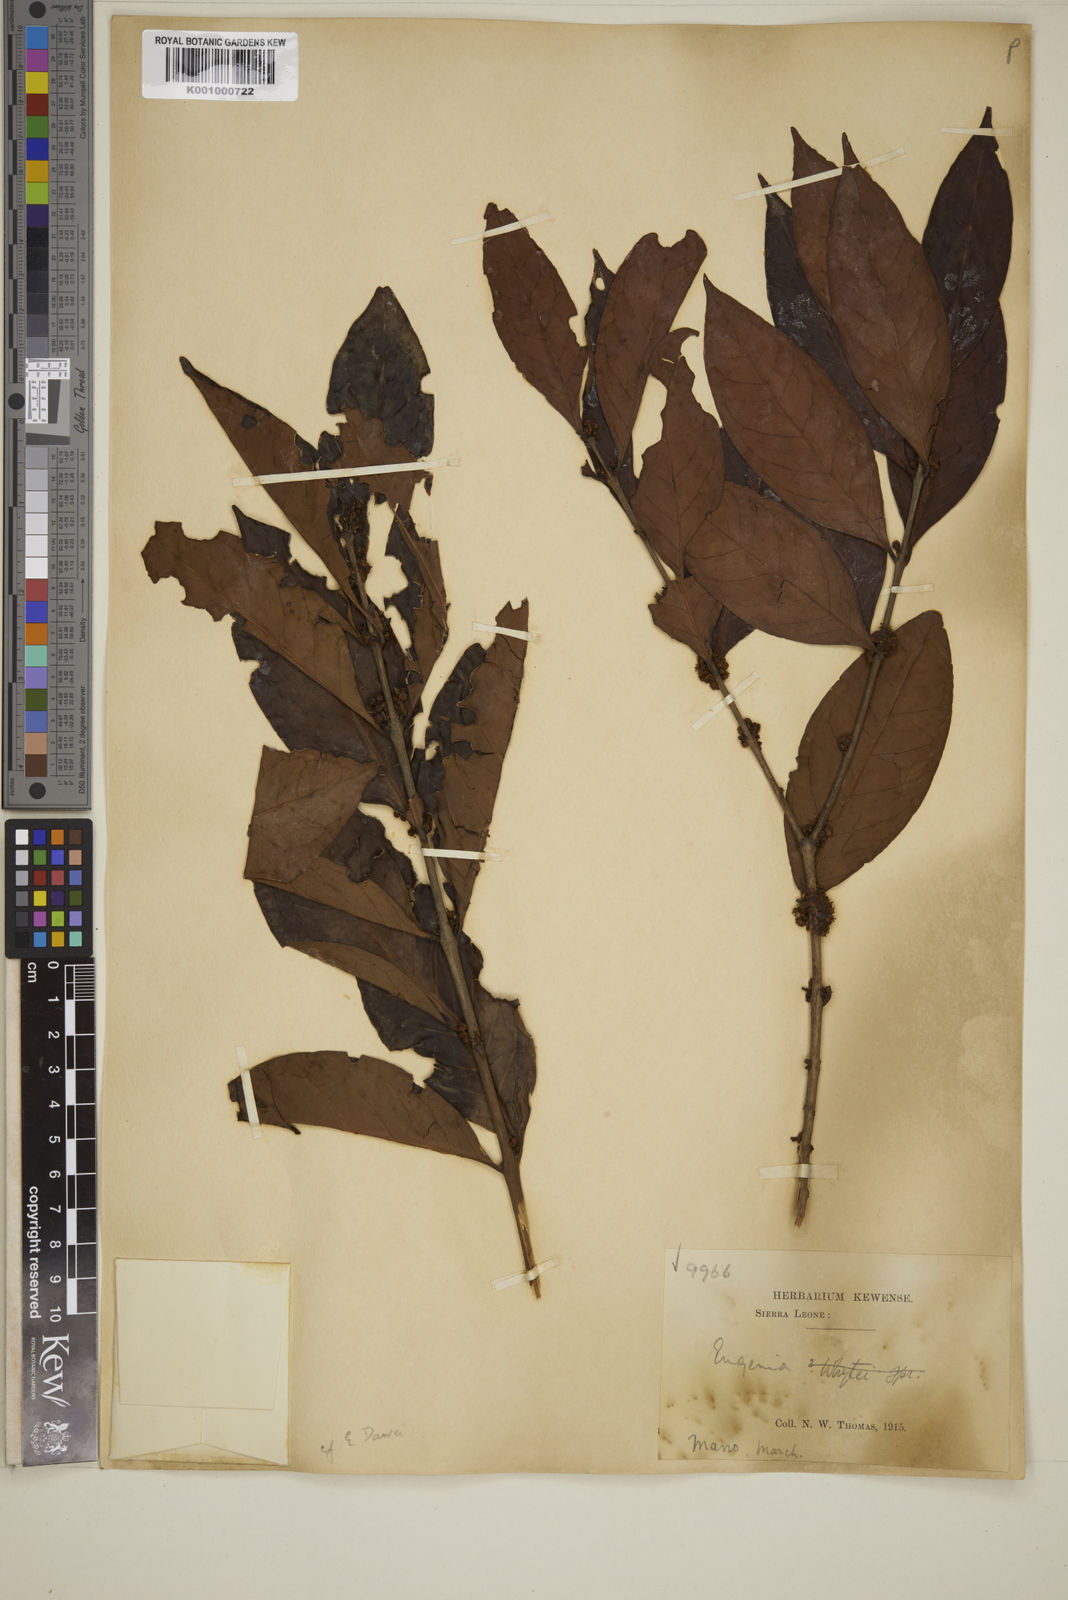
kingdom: Plantae
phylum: Tracheophyta
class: Magnoliopsida
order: Myrtales
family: Myrtaceae
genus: Eugenia
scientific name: Eugenia calophylloides
